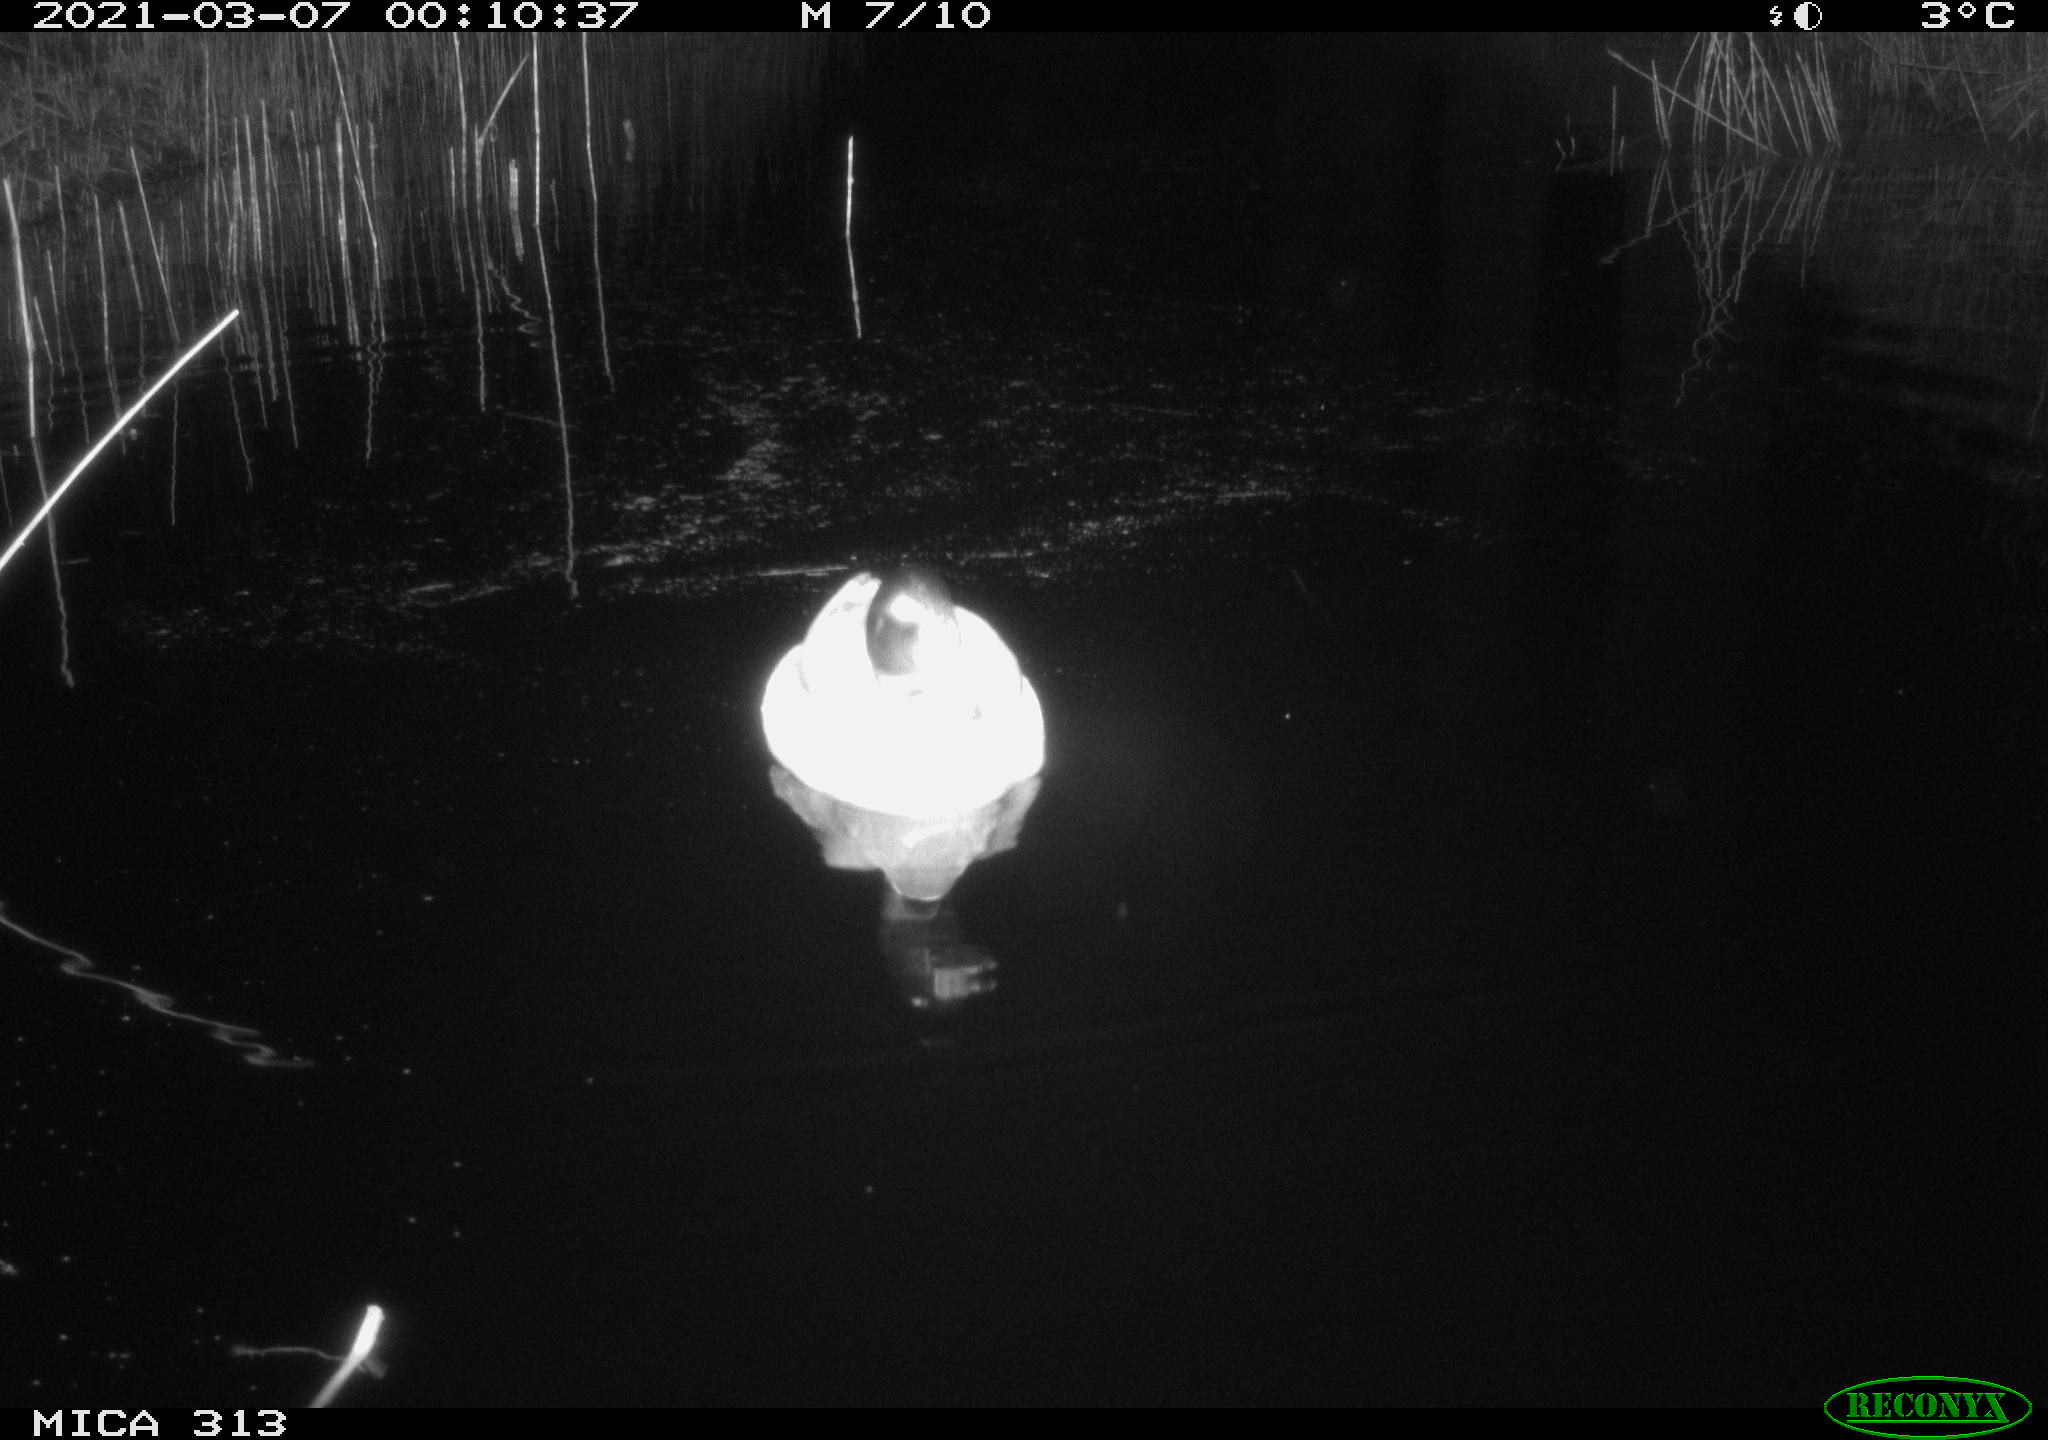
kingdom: Animalia
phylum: Chordata
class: Aves
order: Anseriformes
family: Anatidae
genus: Mareca
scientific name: Mareca strepera
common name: Gadwall
